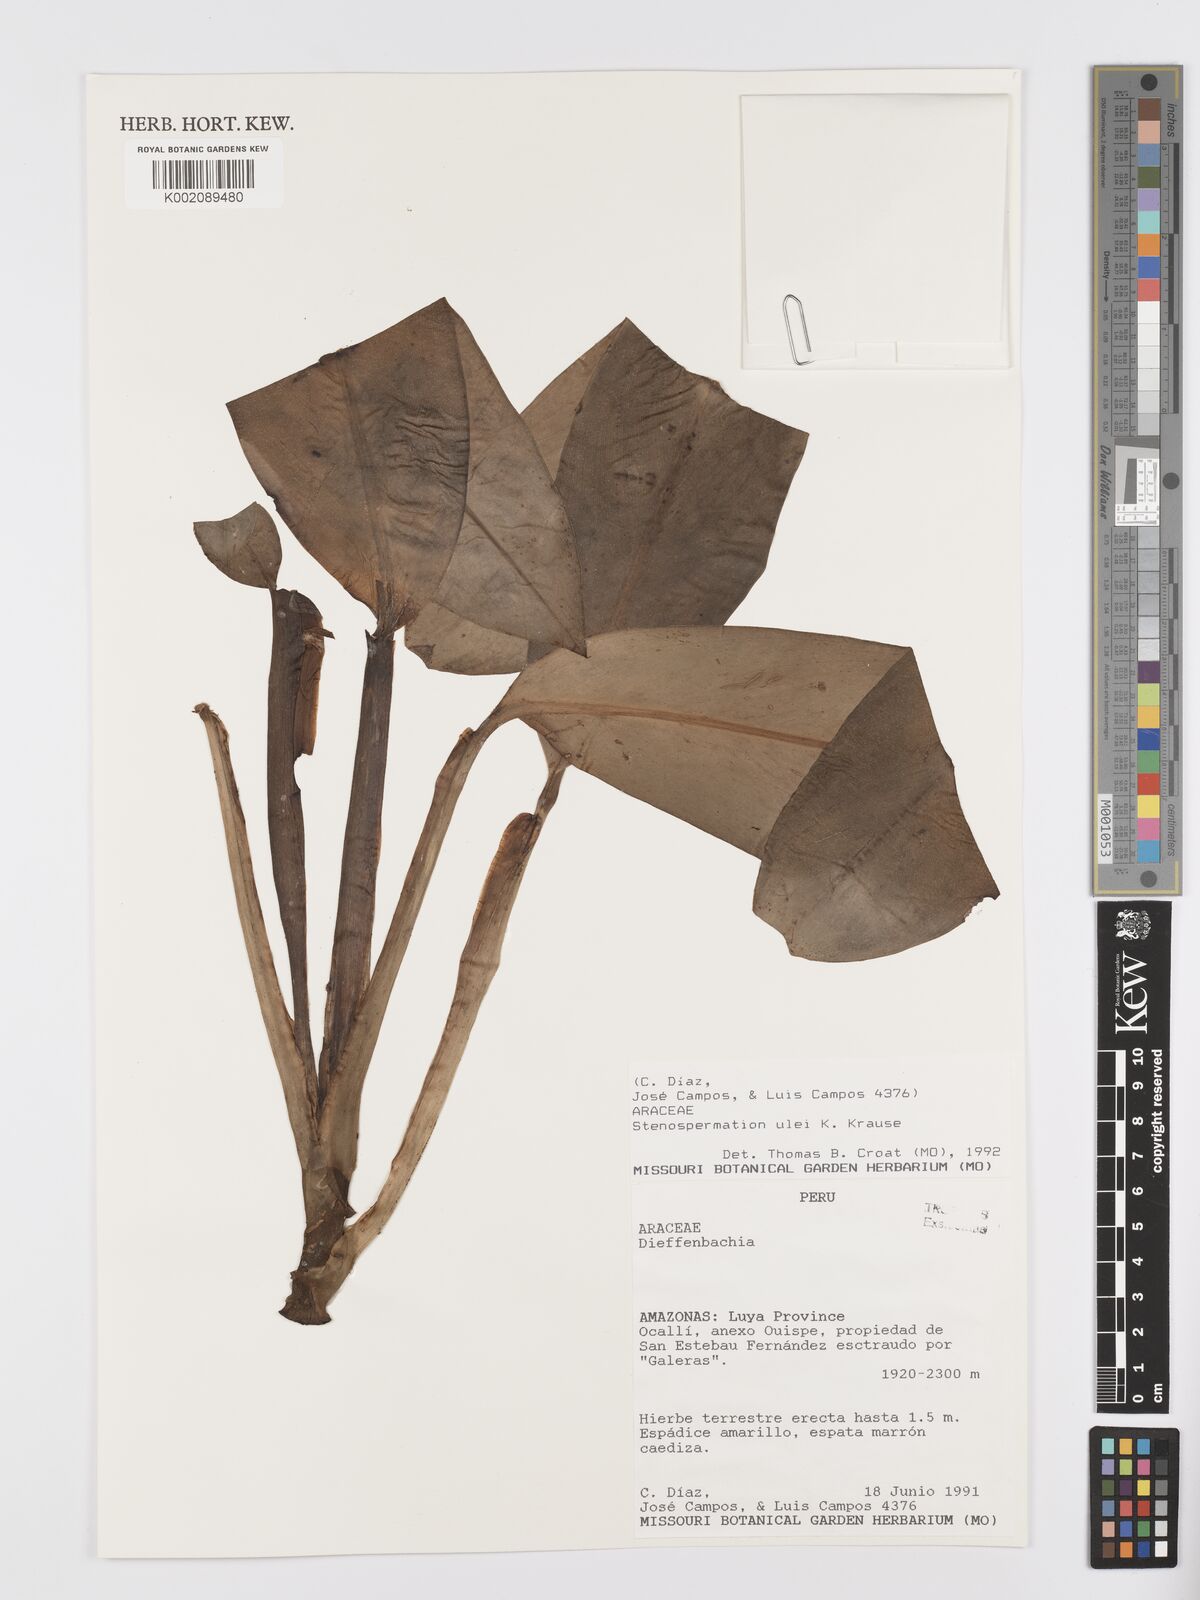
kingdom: Plantae
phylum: Tracheophyta
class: Liliopsida
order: Alismatales
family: Araceae
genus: Stenospermation
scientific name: Stenospermation ulei
